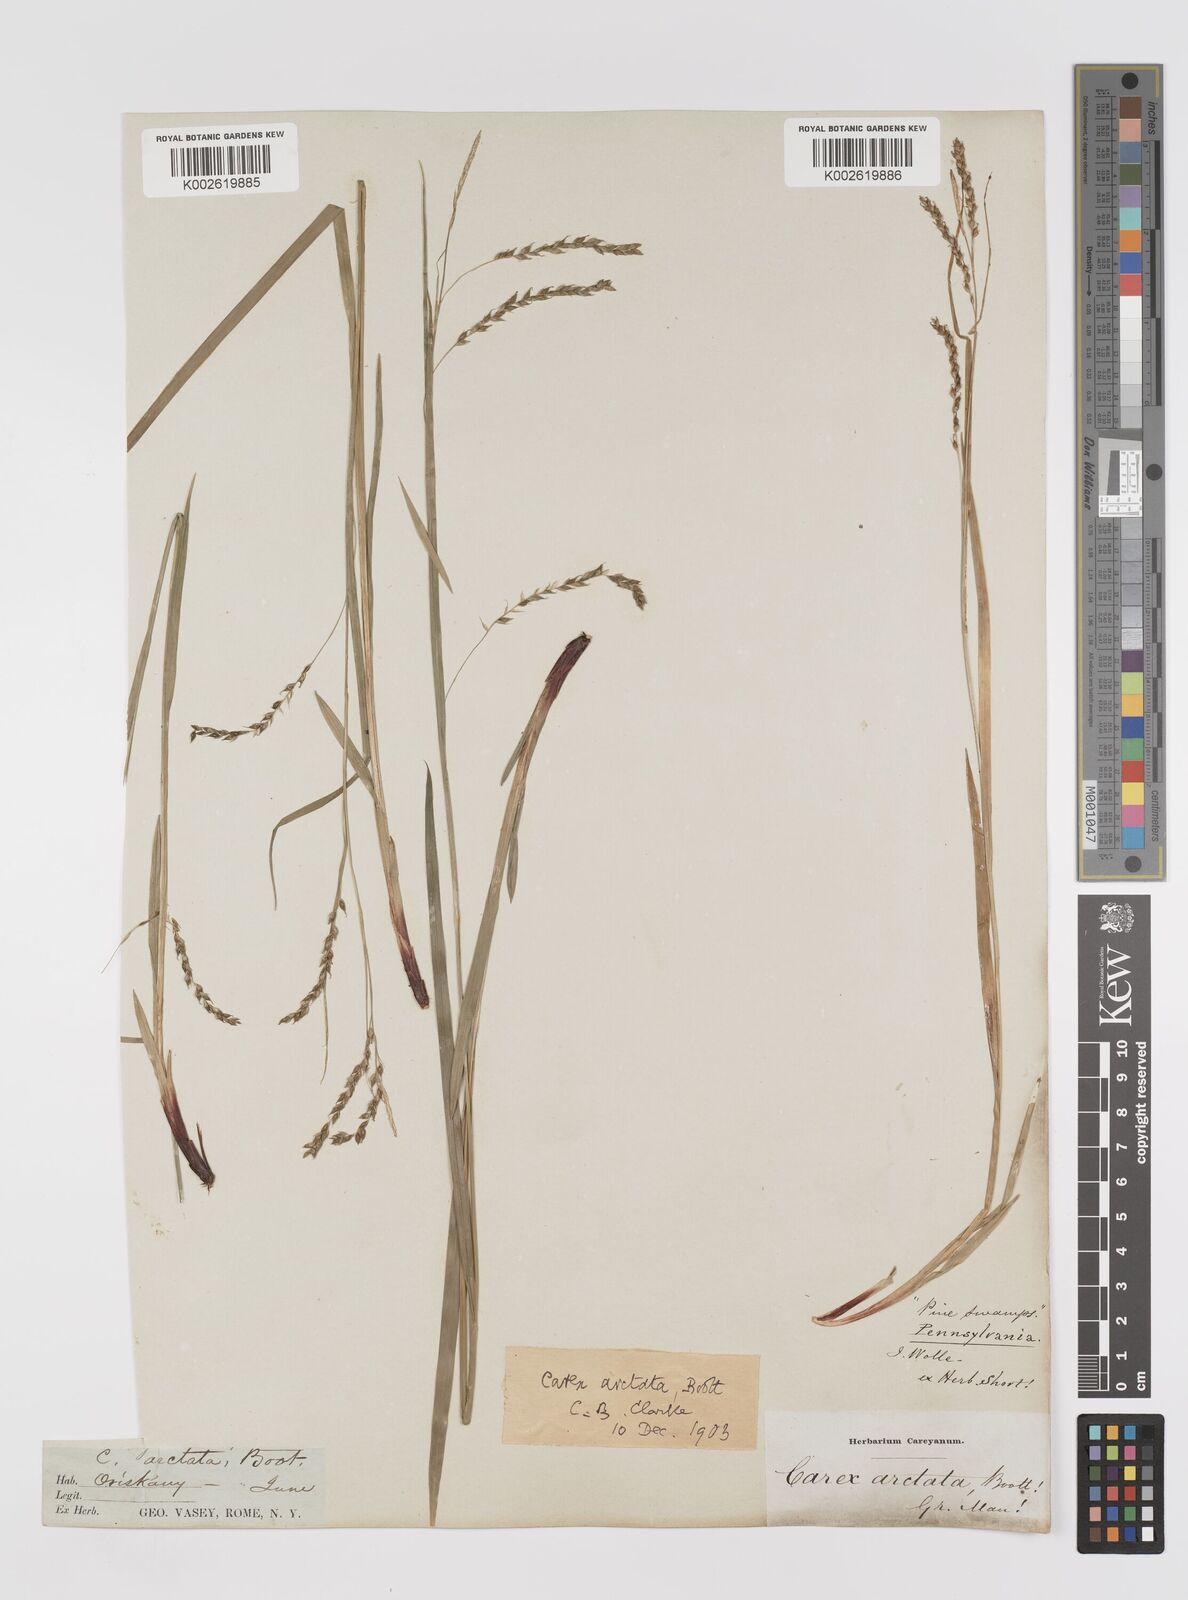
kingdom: Plantae
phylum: Tracheophyta
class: Liliopsida
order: Poales
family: Cyperaceae
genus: Carex
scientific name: Carex arctata
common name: Black sedge
